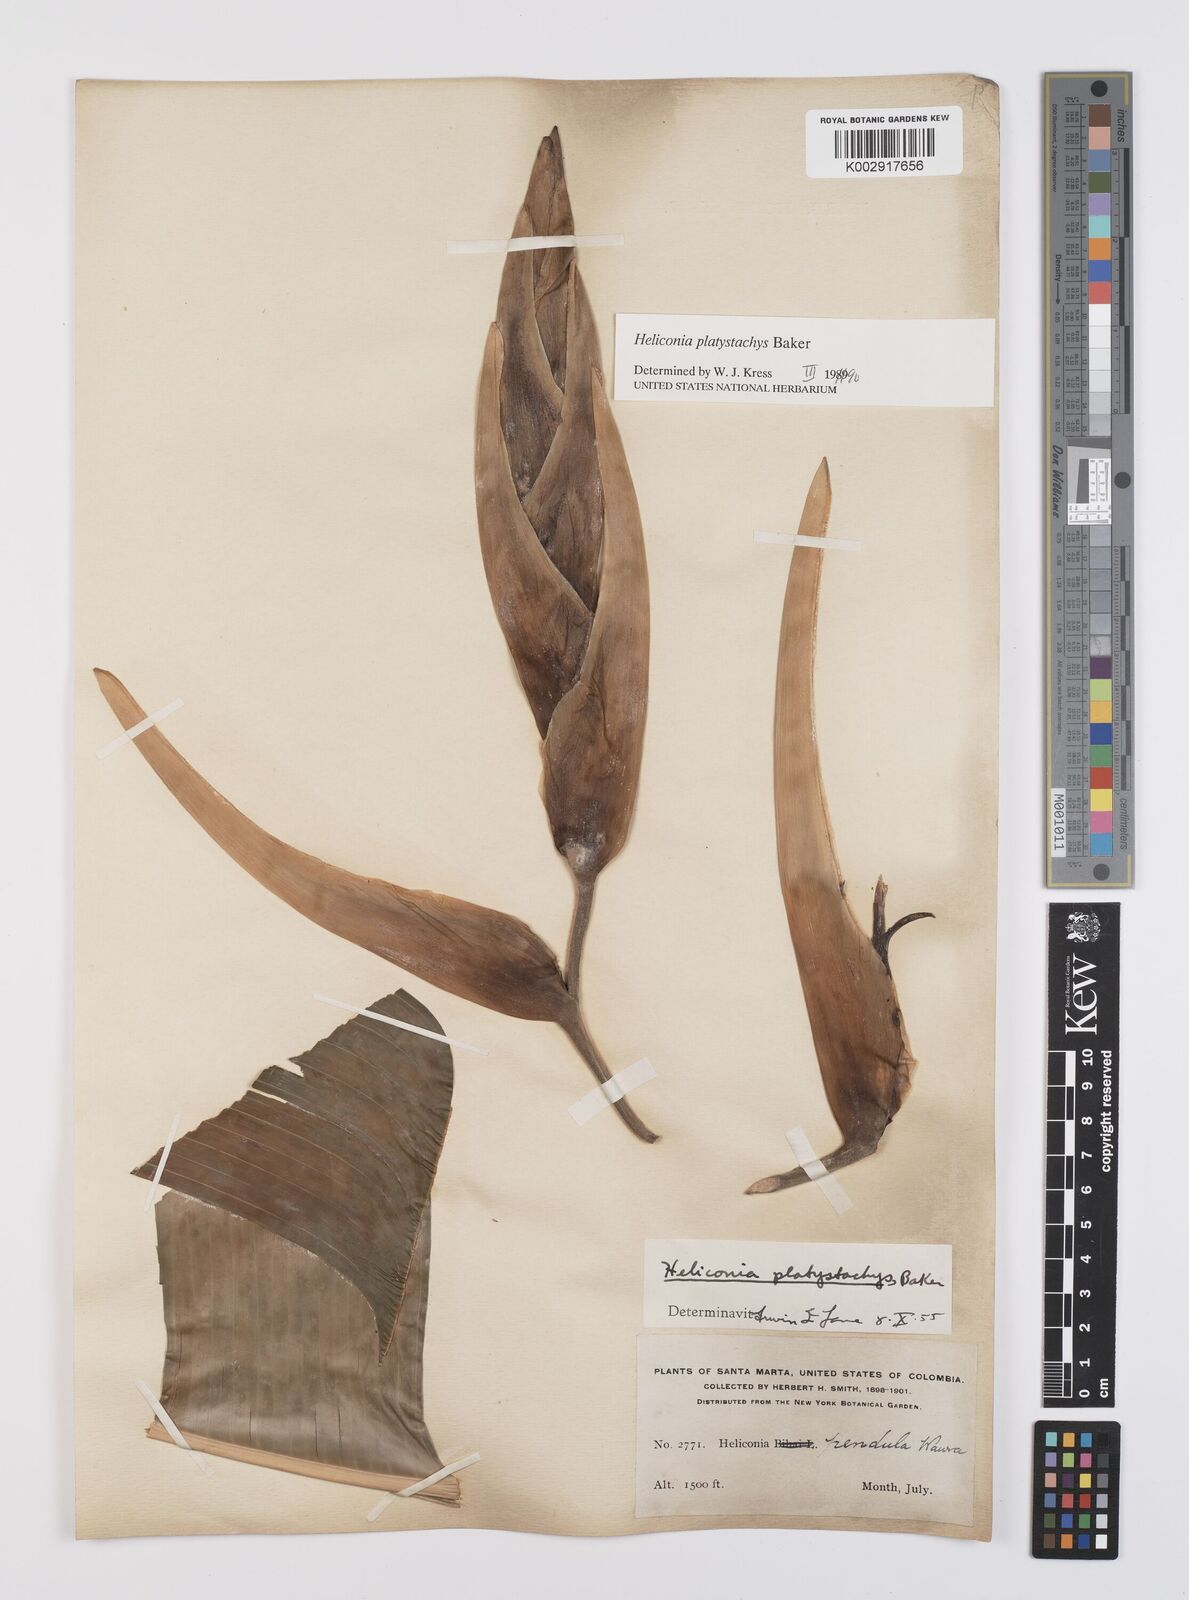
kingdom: Plantae
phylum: Tracheophyta
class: Liliopsida
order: Zingiberales
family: Heliconiaceae
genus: Heliconia
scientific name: Heliconia platystachys
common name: False bird of paradise
